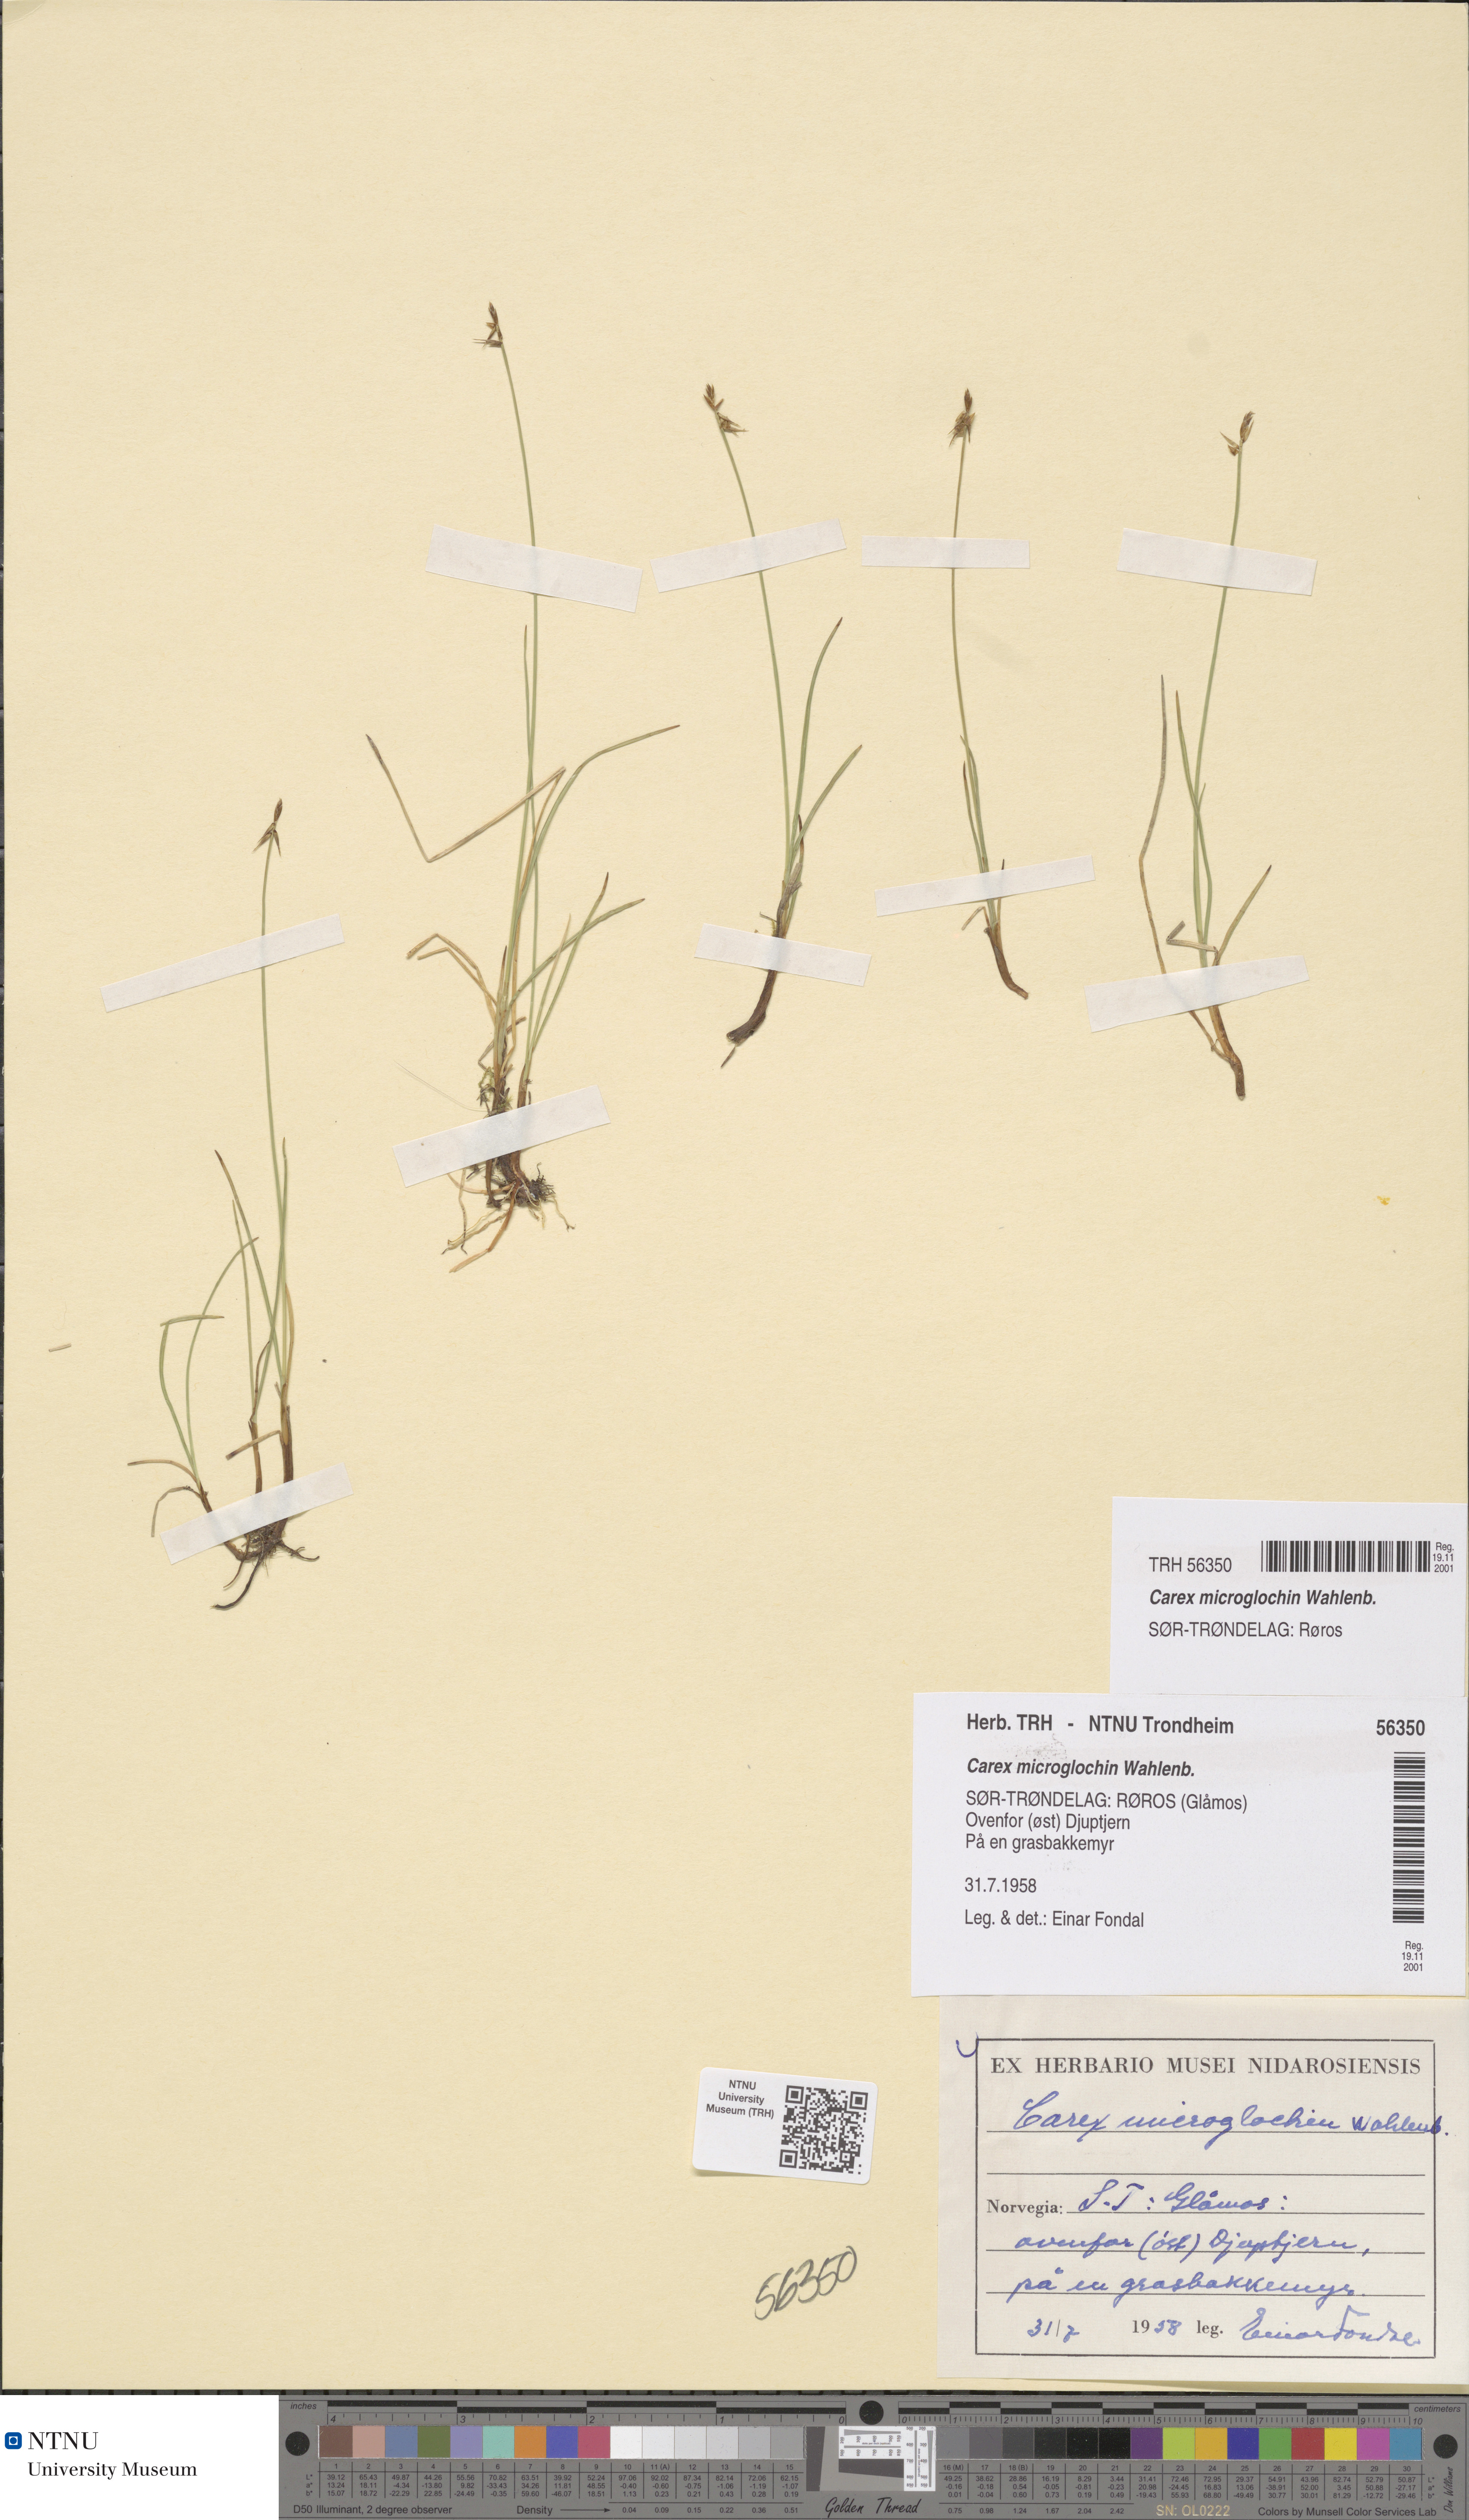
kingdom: Plantae
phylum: Tracheophyta
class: Liliopsida
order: Poales
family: Cyperaceae
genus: Carex
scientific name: Carex microglochin
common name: Bristle sedge
